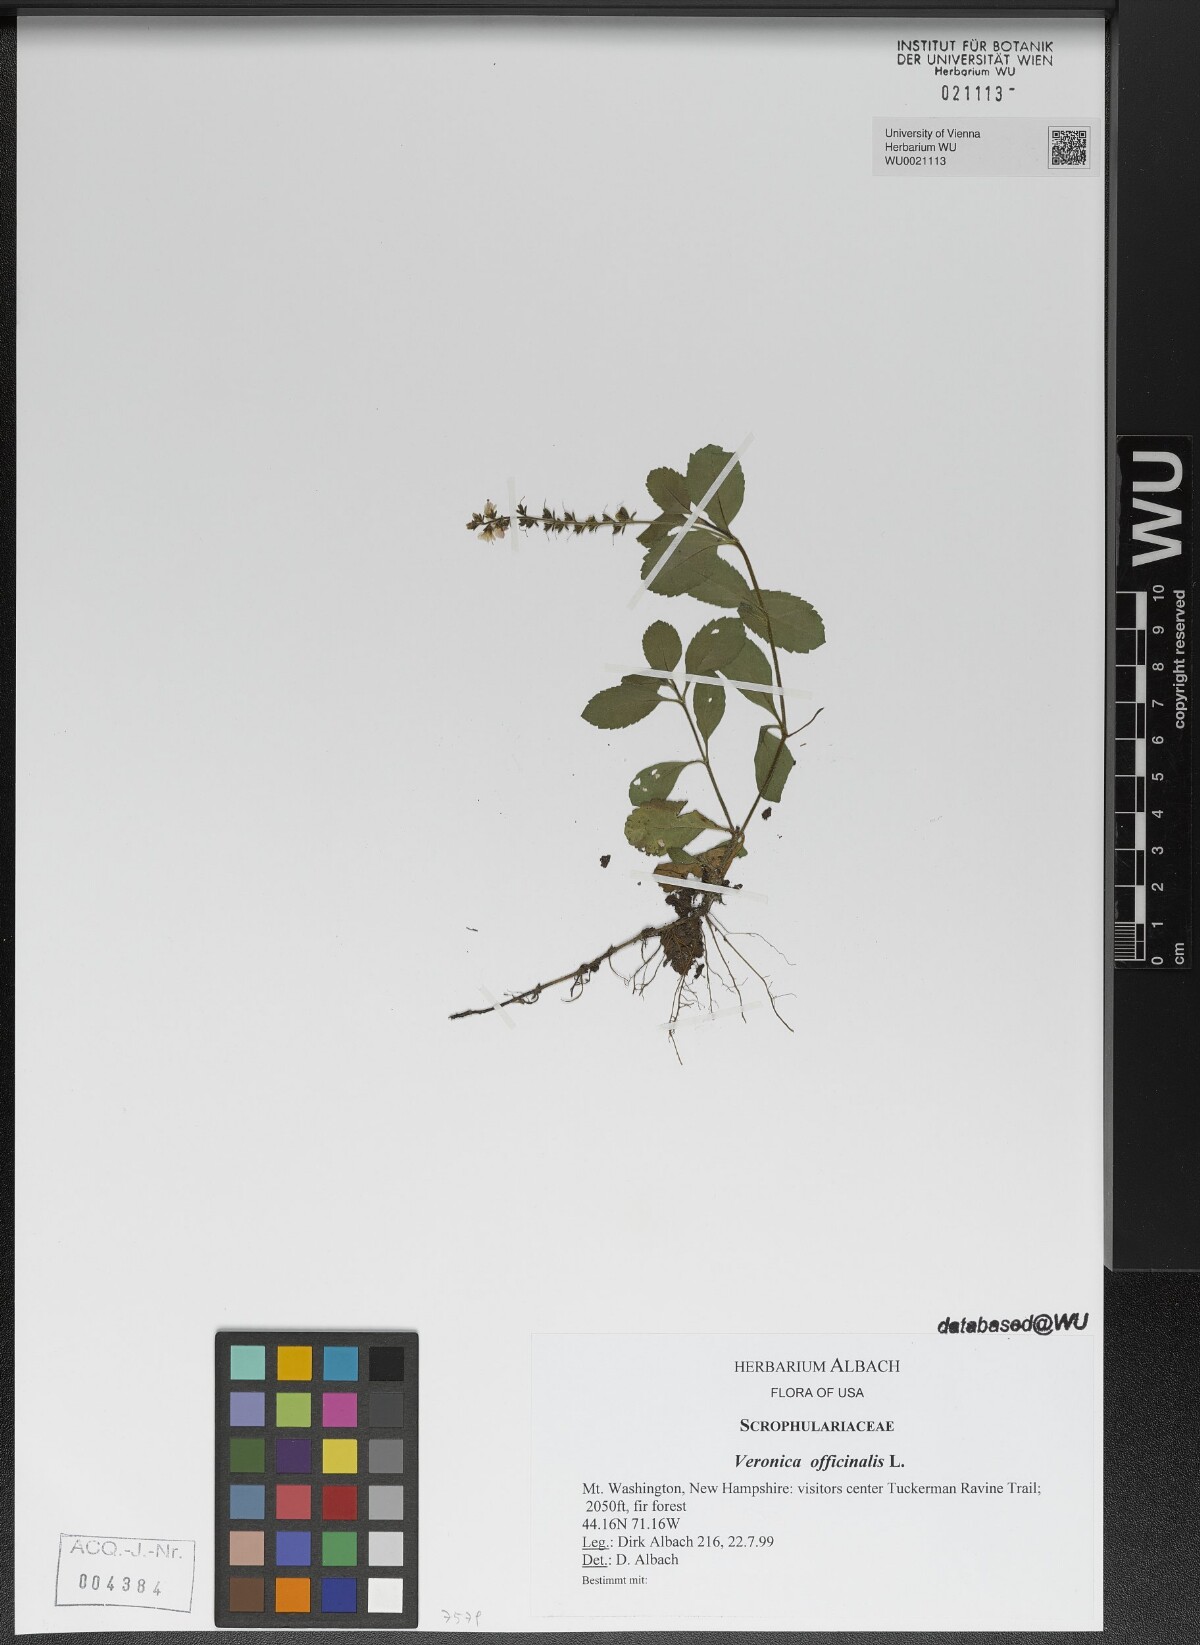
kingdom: Plantae
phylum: Tracheophyta
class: Magnoliopsida
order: Lamiales
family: Plantaginaceae
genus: Veronica
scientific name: Veronica officinalis
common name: Common speedwell
